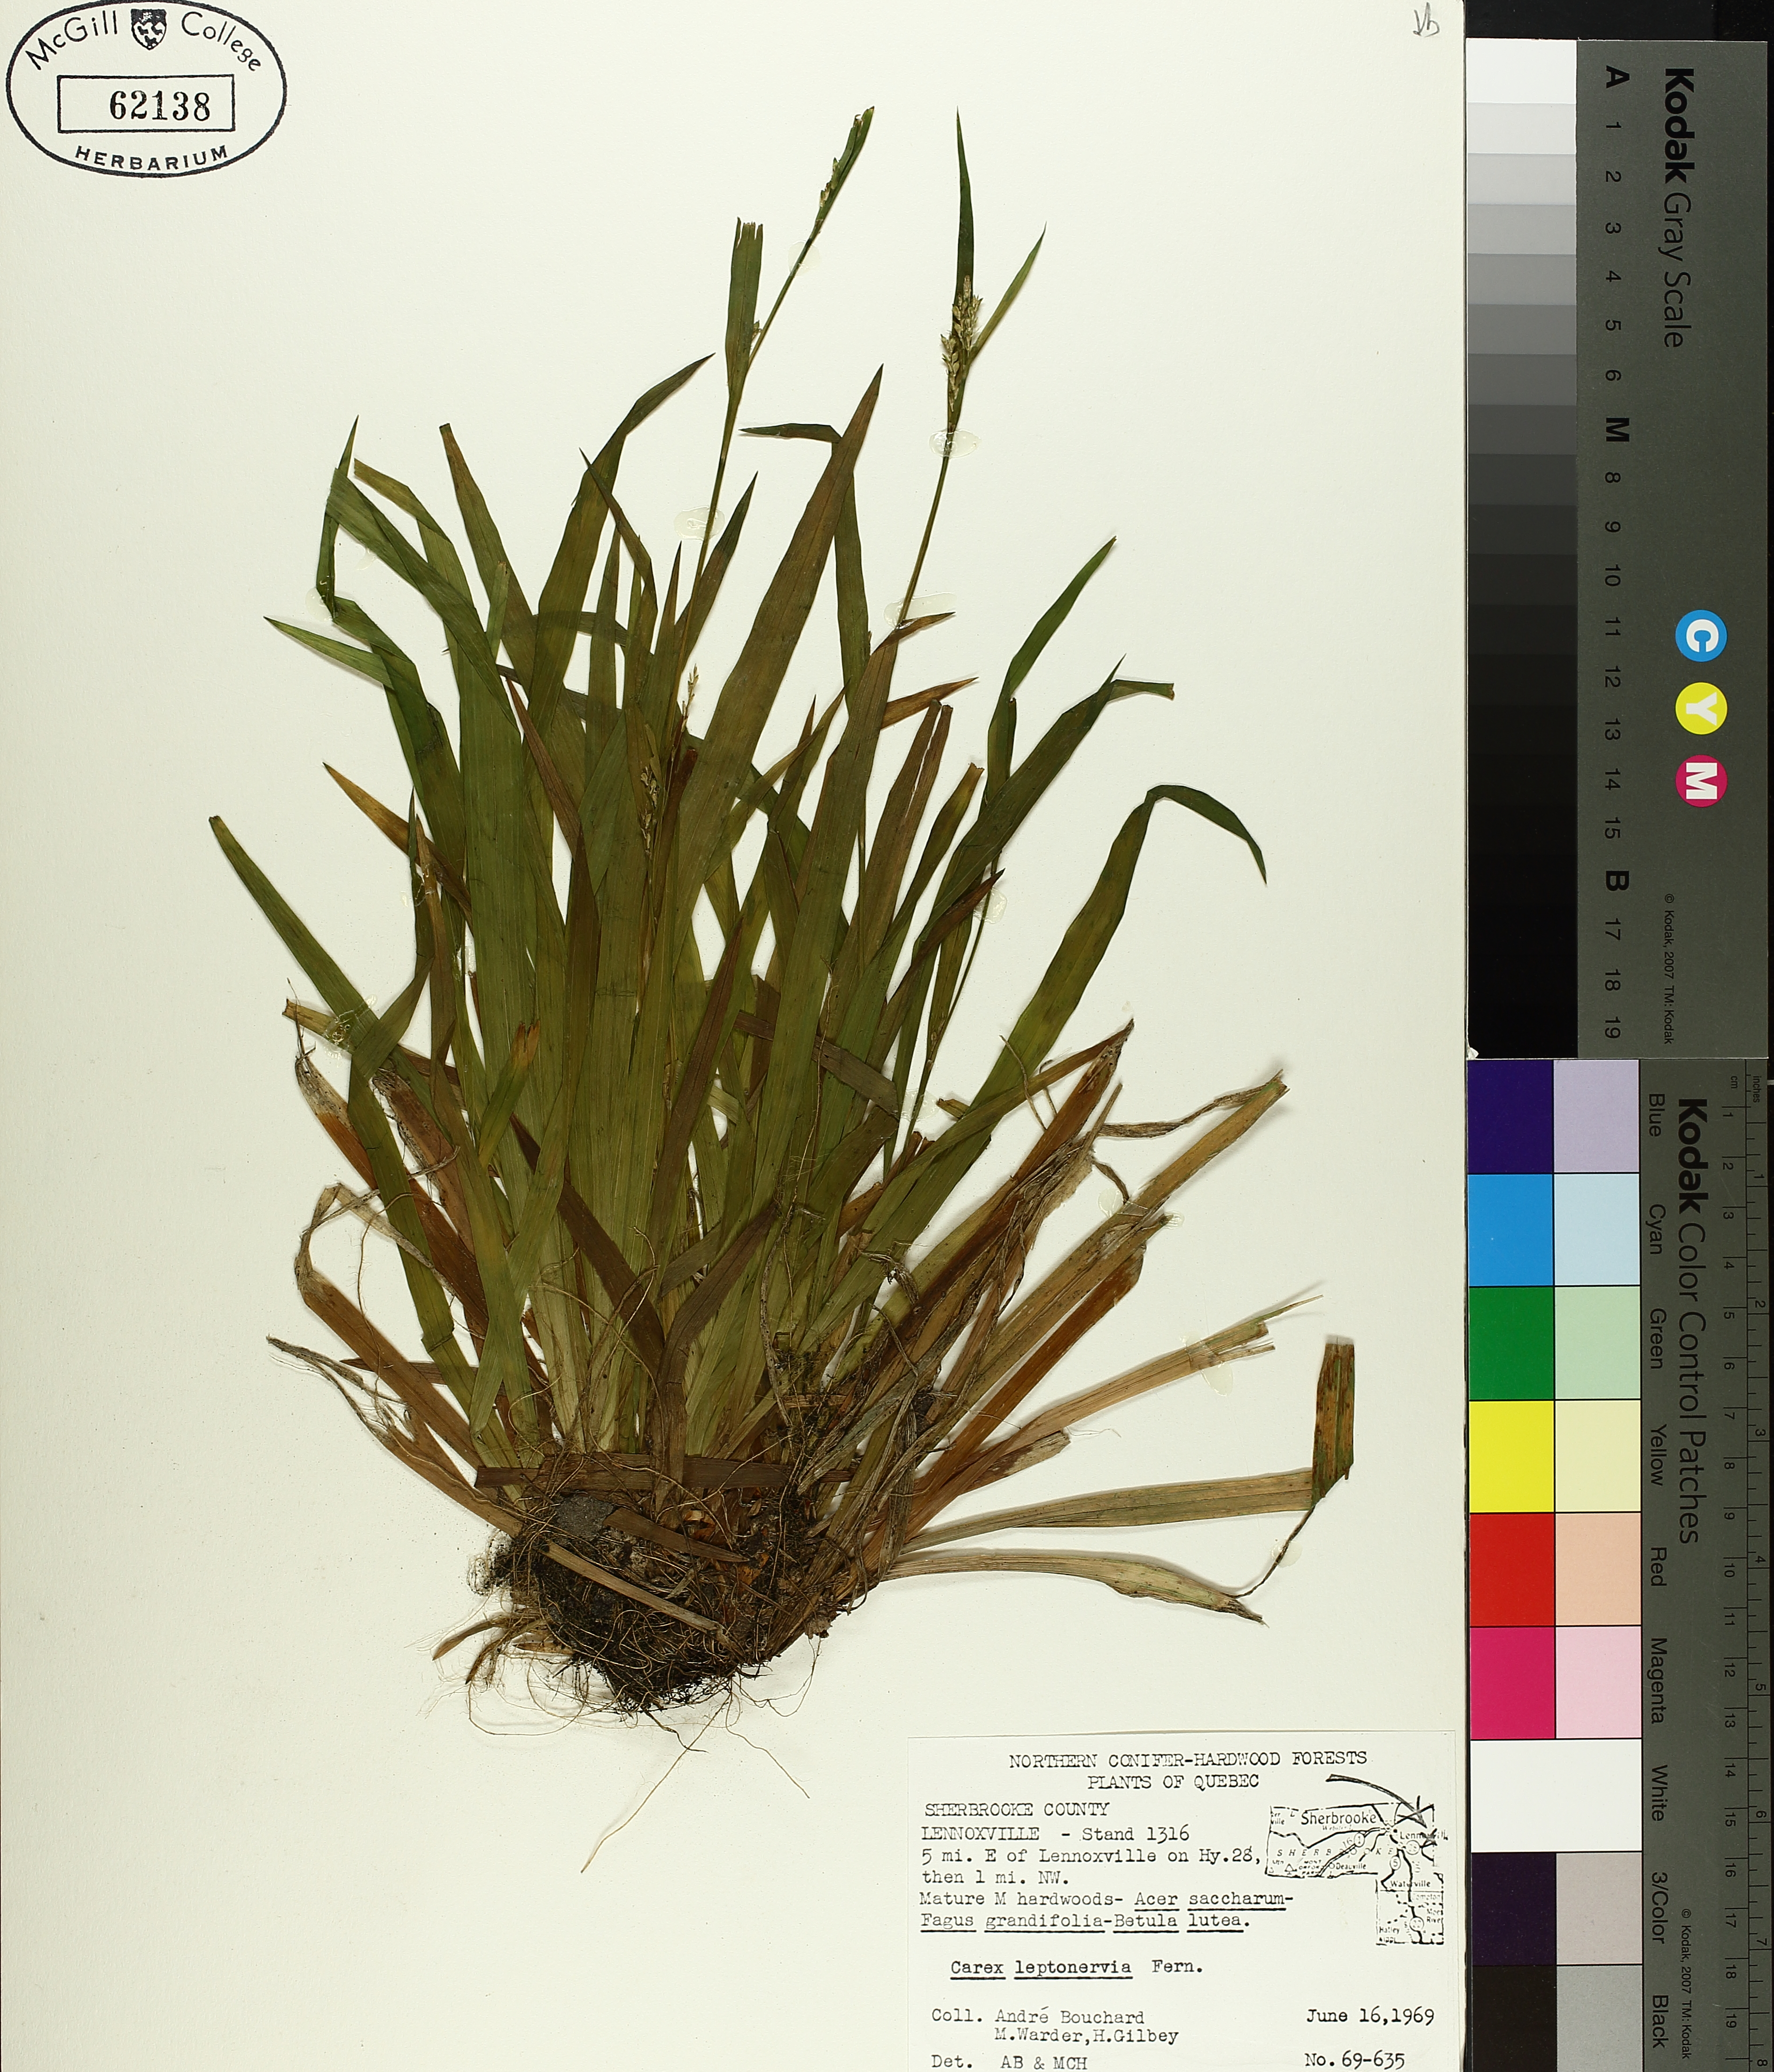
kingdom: Plantae
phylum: Tracheophyta
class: Liliopsida
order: Poales
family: Cyperaceae
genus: Carex
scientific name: Carex leptonervia
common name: Few-nerved wood sedge
